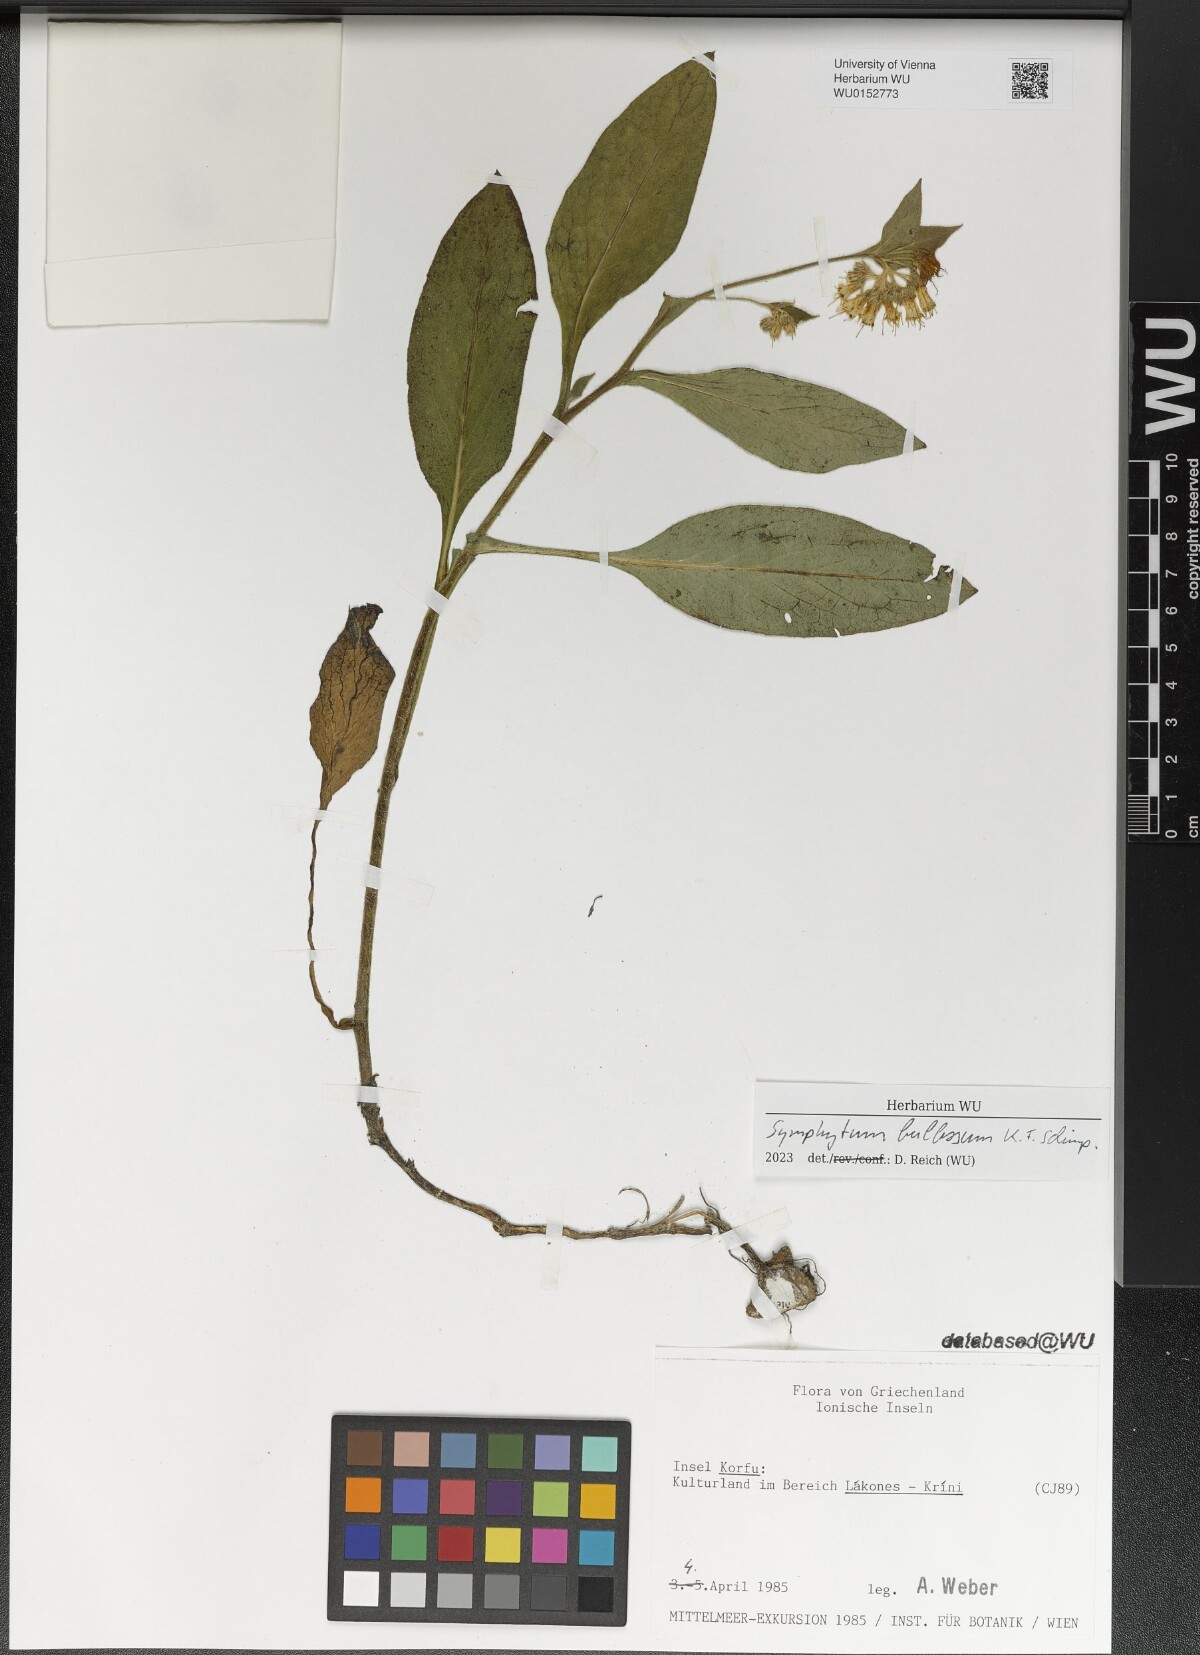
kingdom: Plantae
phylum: Tracheophyta
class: Magnoliopsida
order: Boraginales
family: Boraginaceae
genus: Symphytum
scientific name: Symphytum bulbosum
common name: Bulbous comfrey
